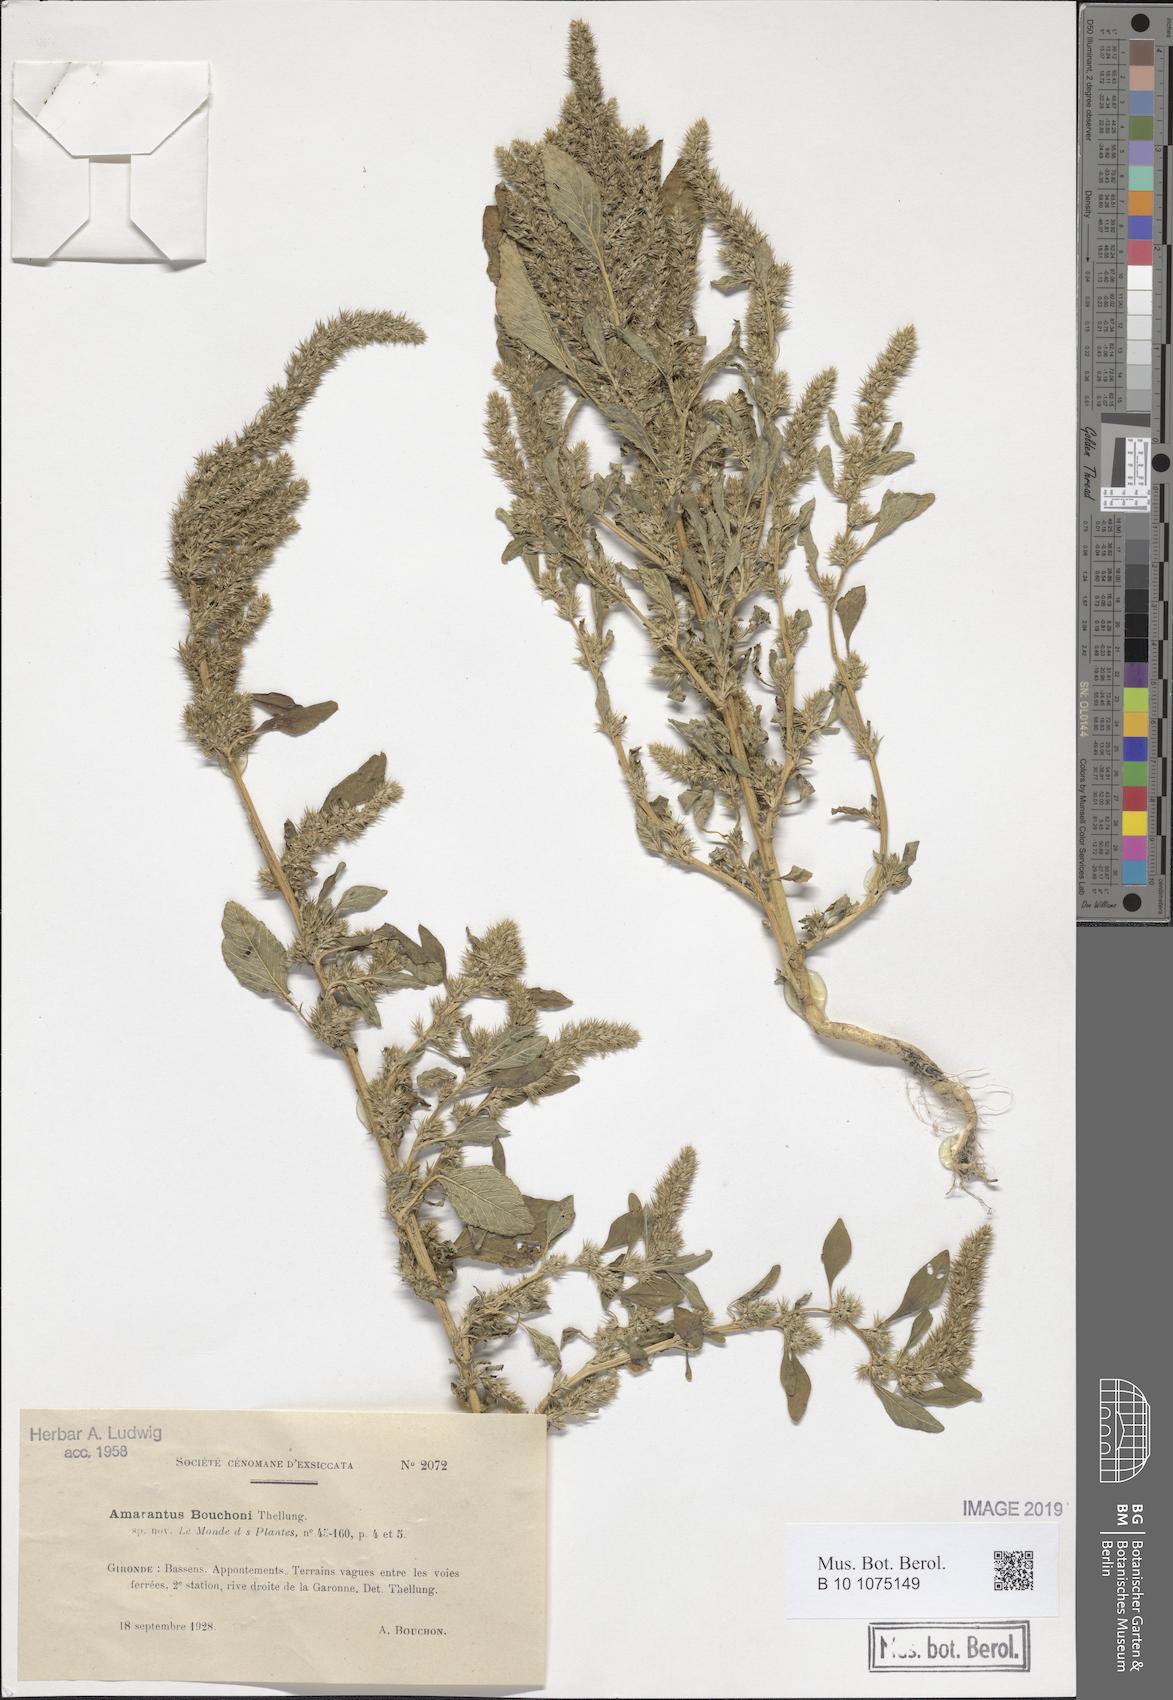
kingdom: Plantae
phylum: Tracheophyta
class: Magnoliopsida
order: Caryophyllales
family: Amaranthaceae
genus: Amaranthus
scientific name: Amaranthus bouchonii
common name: Indehiscent amaranth
